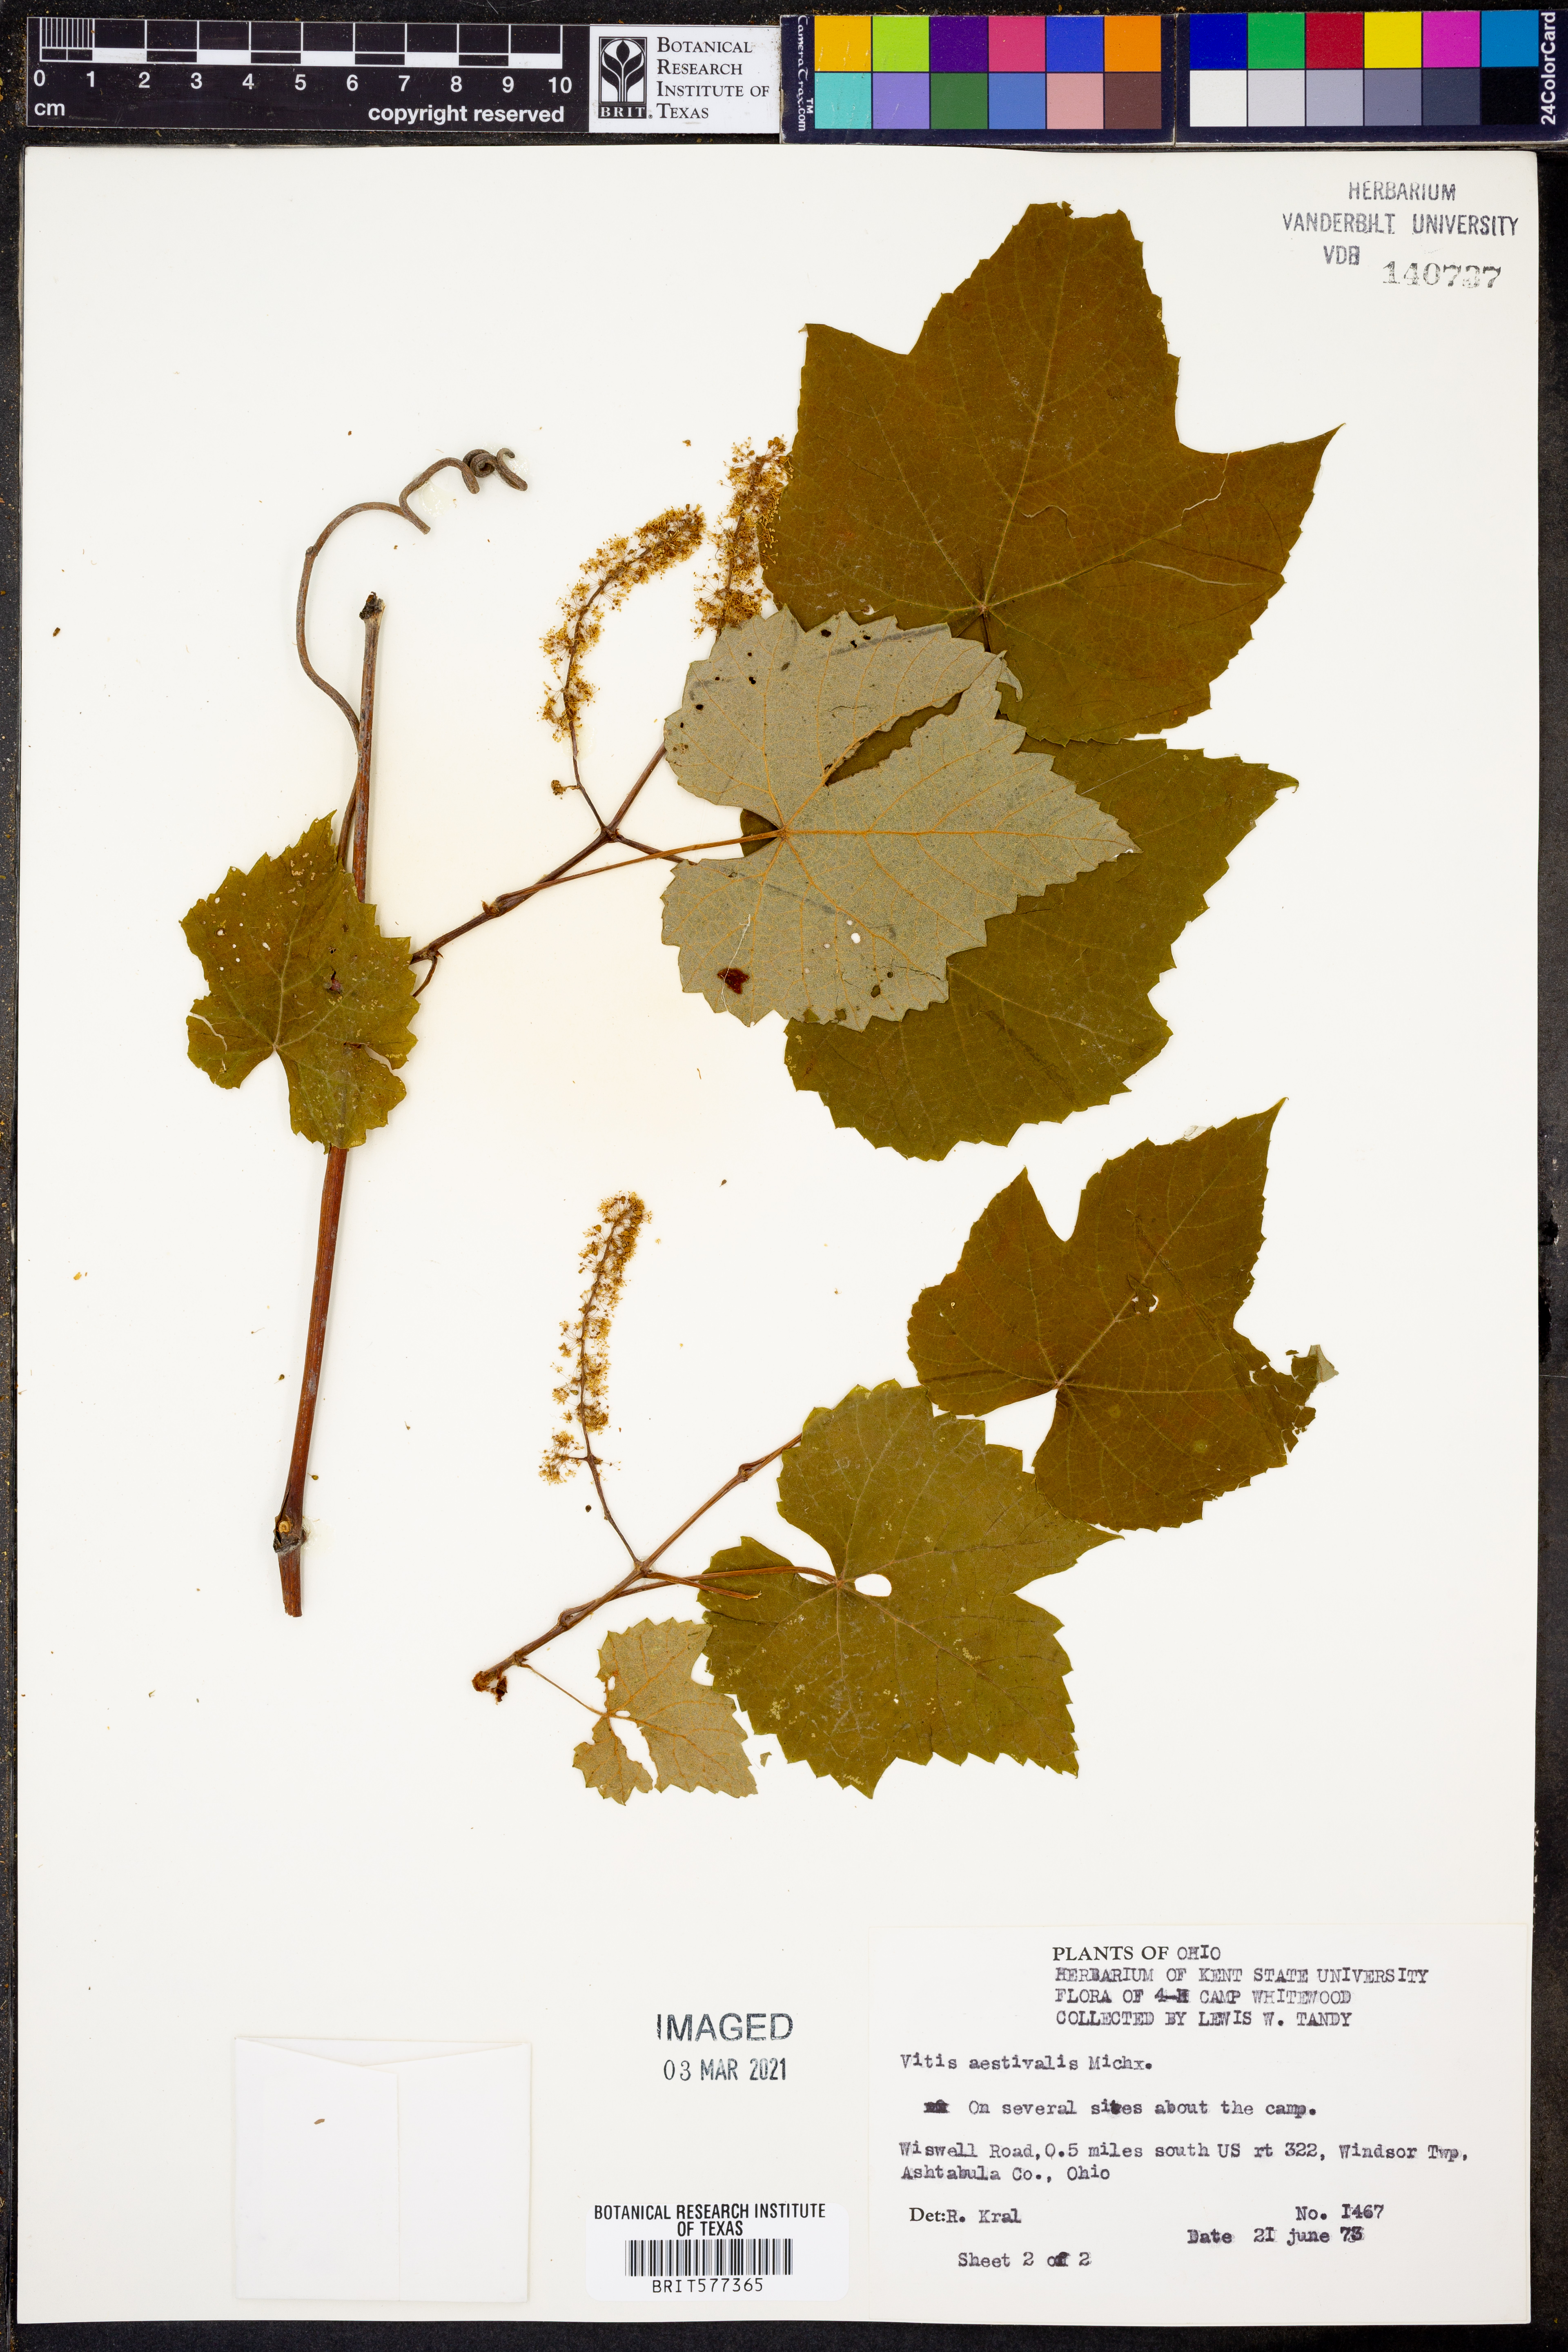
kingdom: Plantae
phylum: Tracheophyta
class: Magnoliopsida
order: Vitales
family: Vitaceae
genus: Vitis
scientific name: Vitis aestivalis
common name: Pigeon grape
